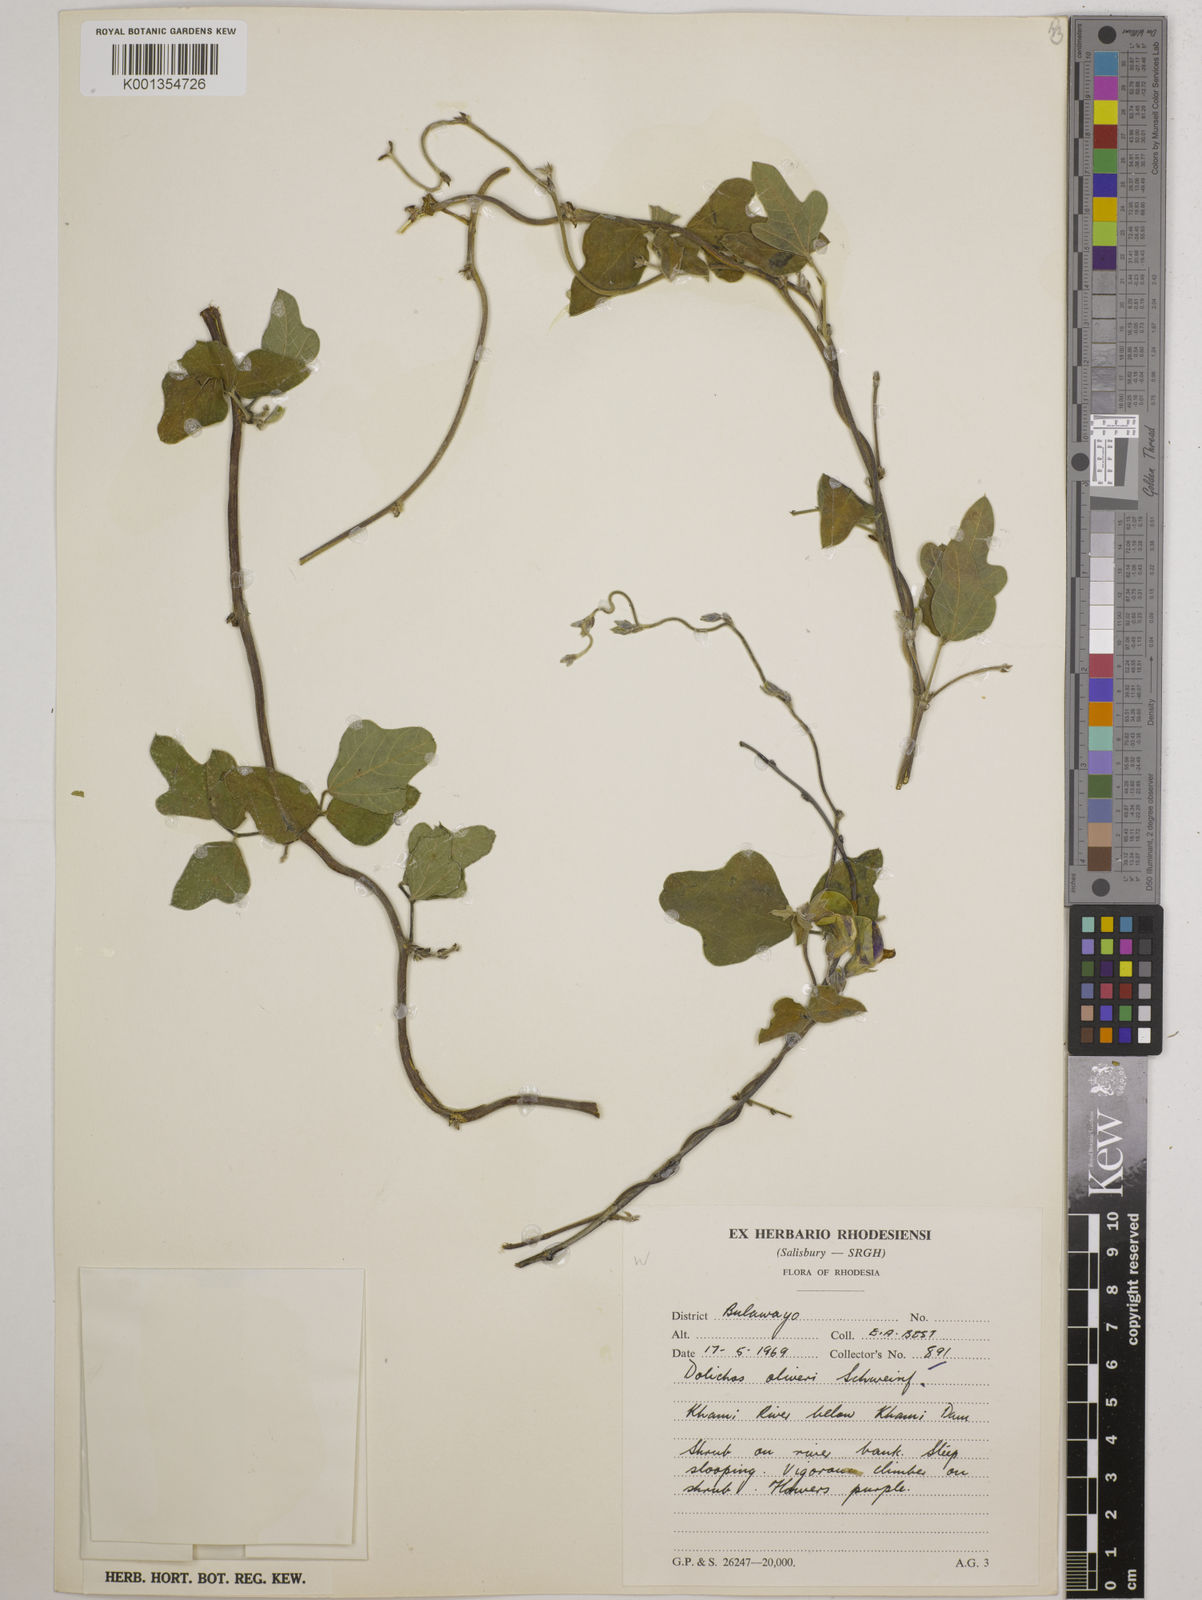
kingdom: Plantae
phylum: Tracheophyta
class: Magnoliopsida
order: Fabales
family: Fabaceae
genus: Dolichos
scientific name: Dolichos oliveri
